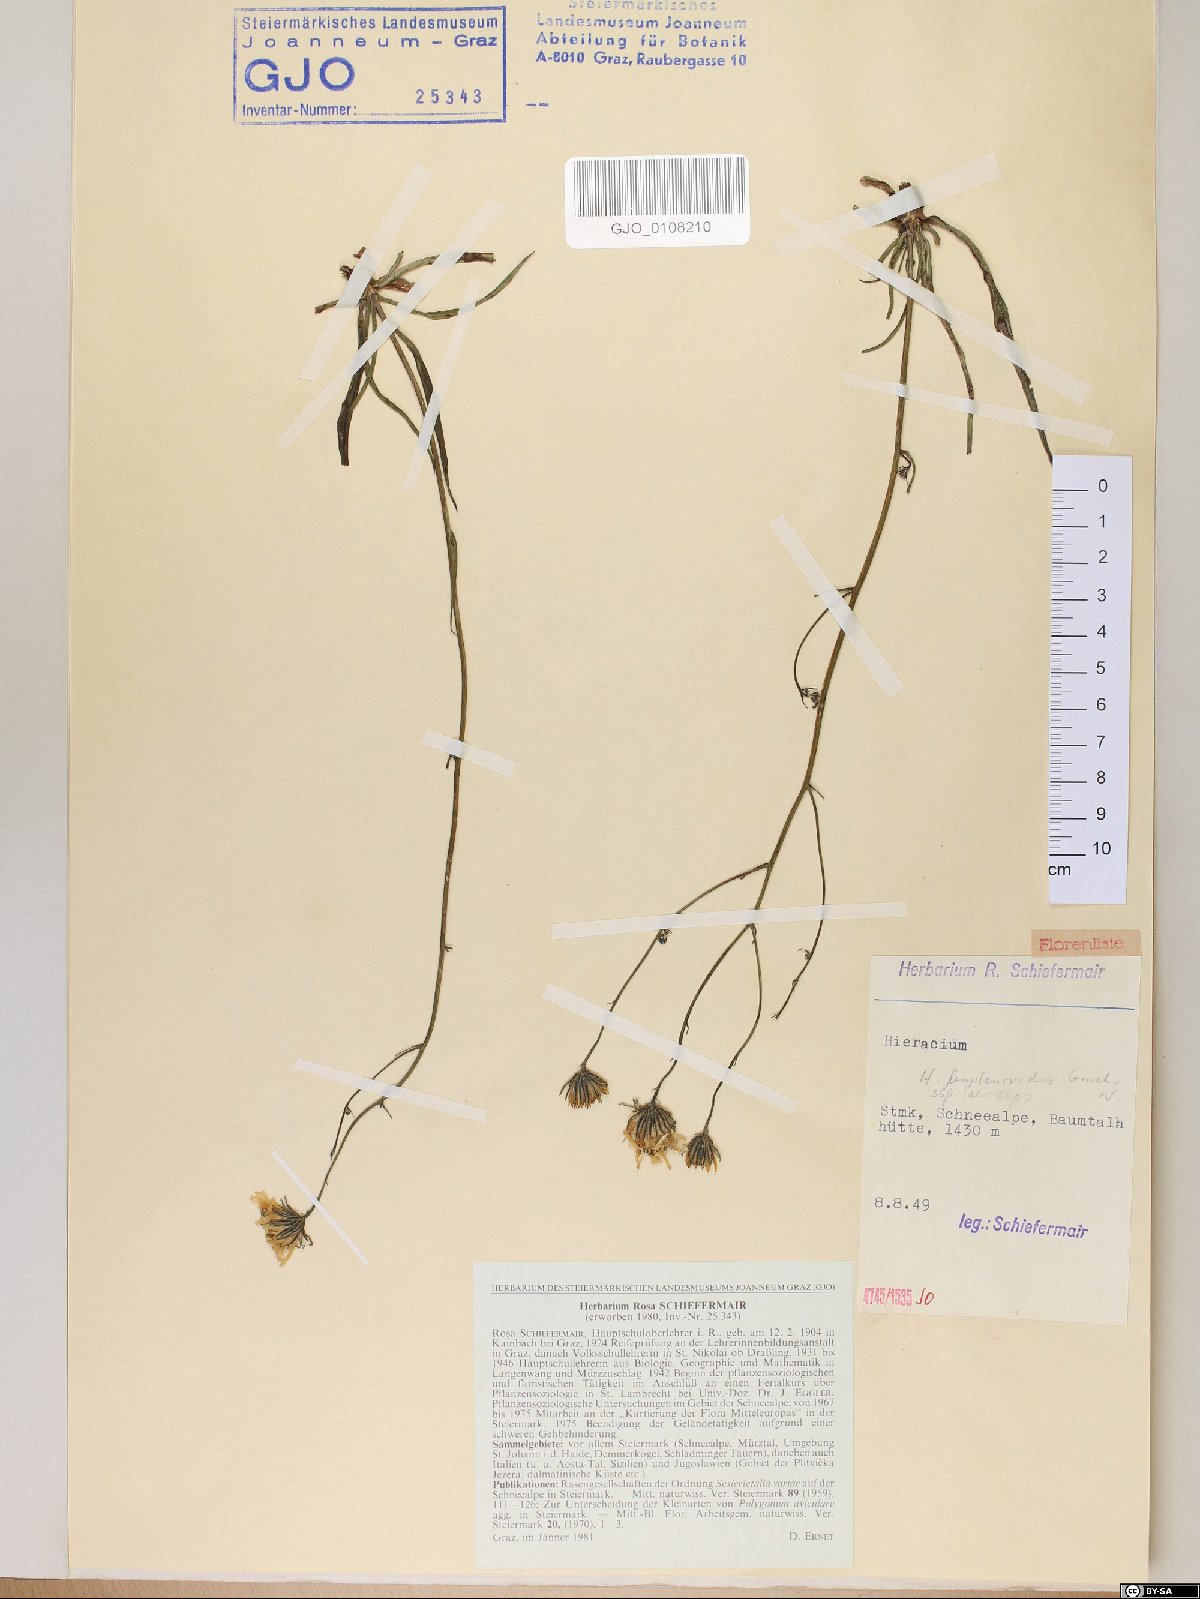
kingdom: Plantae
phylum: Tracheophyta
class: Magnoliopsida
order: Asterales
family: Asteraceae
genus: Hieracium
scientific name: Hieracium bupleuroides
